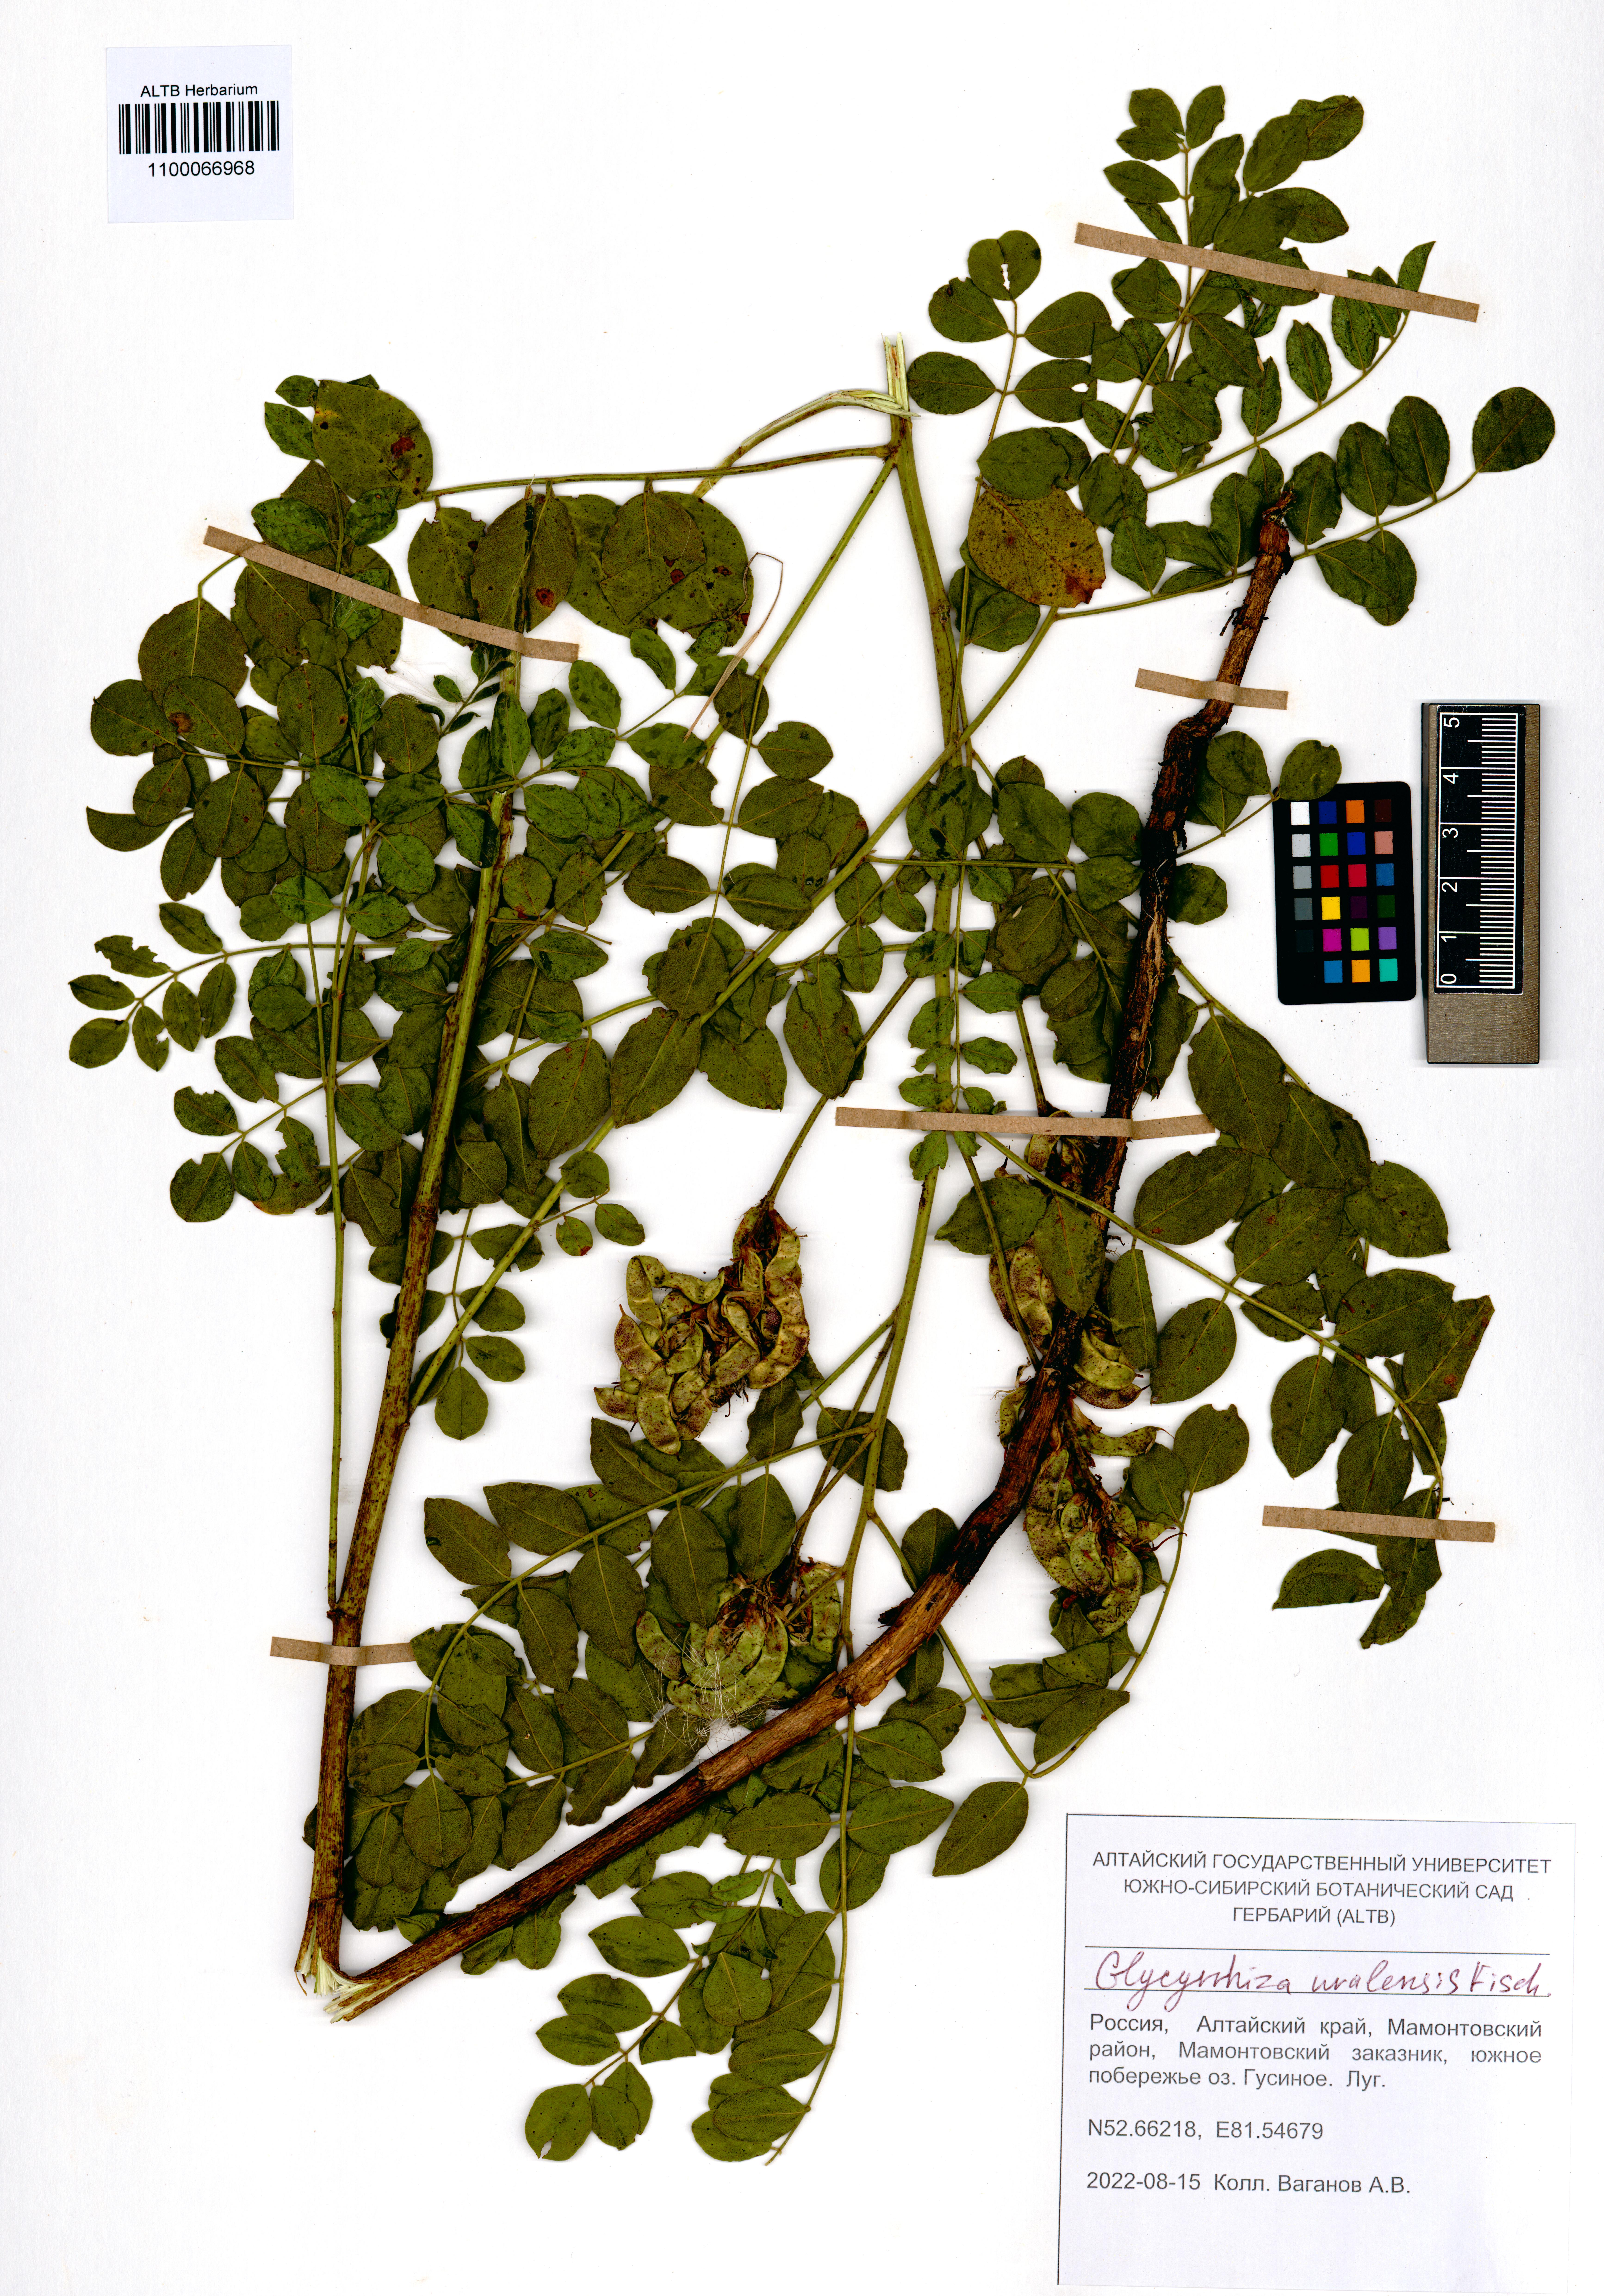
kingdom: Plantae
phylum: Tracheophyta
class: Magnoliopsida
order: Fabales
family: Fabaceae
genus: Glycyrrhiza
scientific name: Glycyrrhiza uralensis
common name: Chinese licorice
